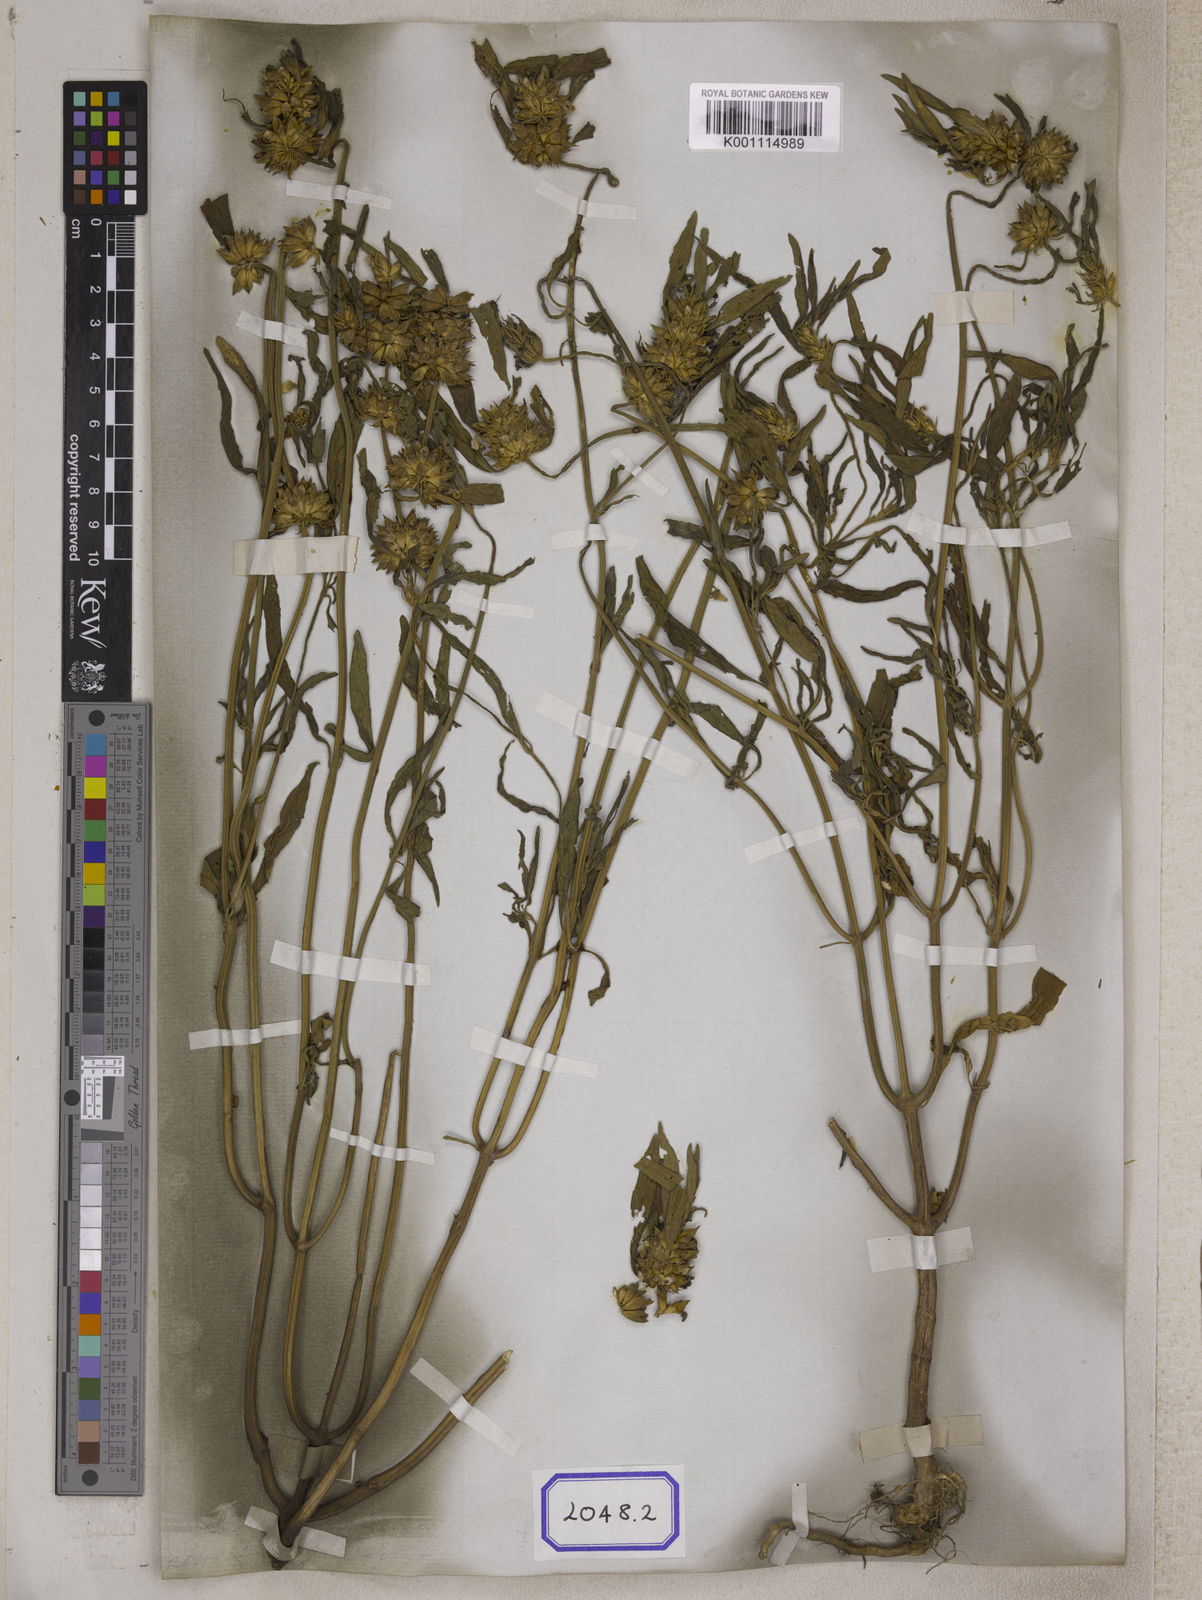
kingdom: Plantae
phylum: Tracheophyta
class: Magnoliopsida
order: Lamiales
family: Lamiaceae
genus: Leucas
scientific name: Leucas lavandulifolia
